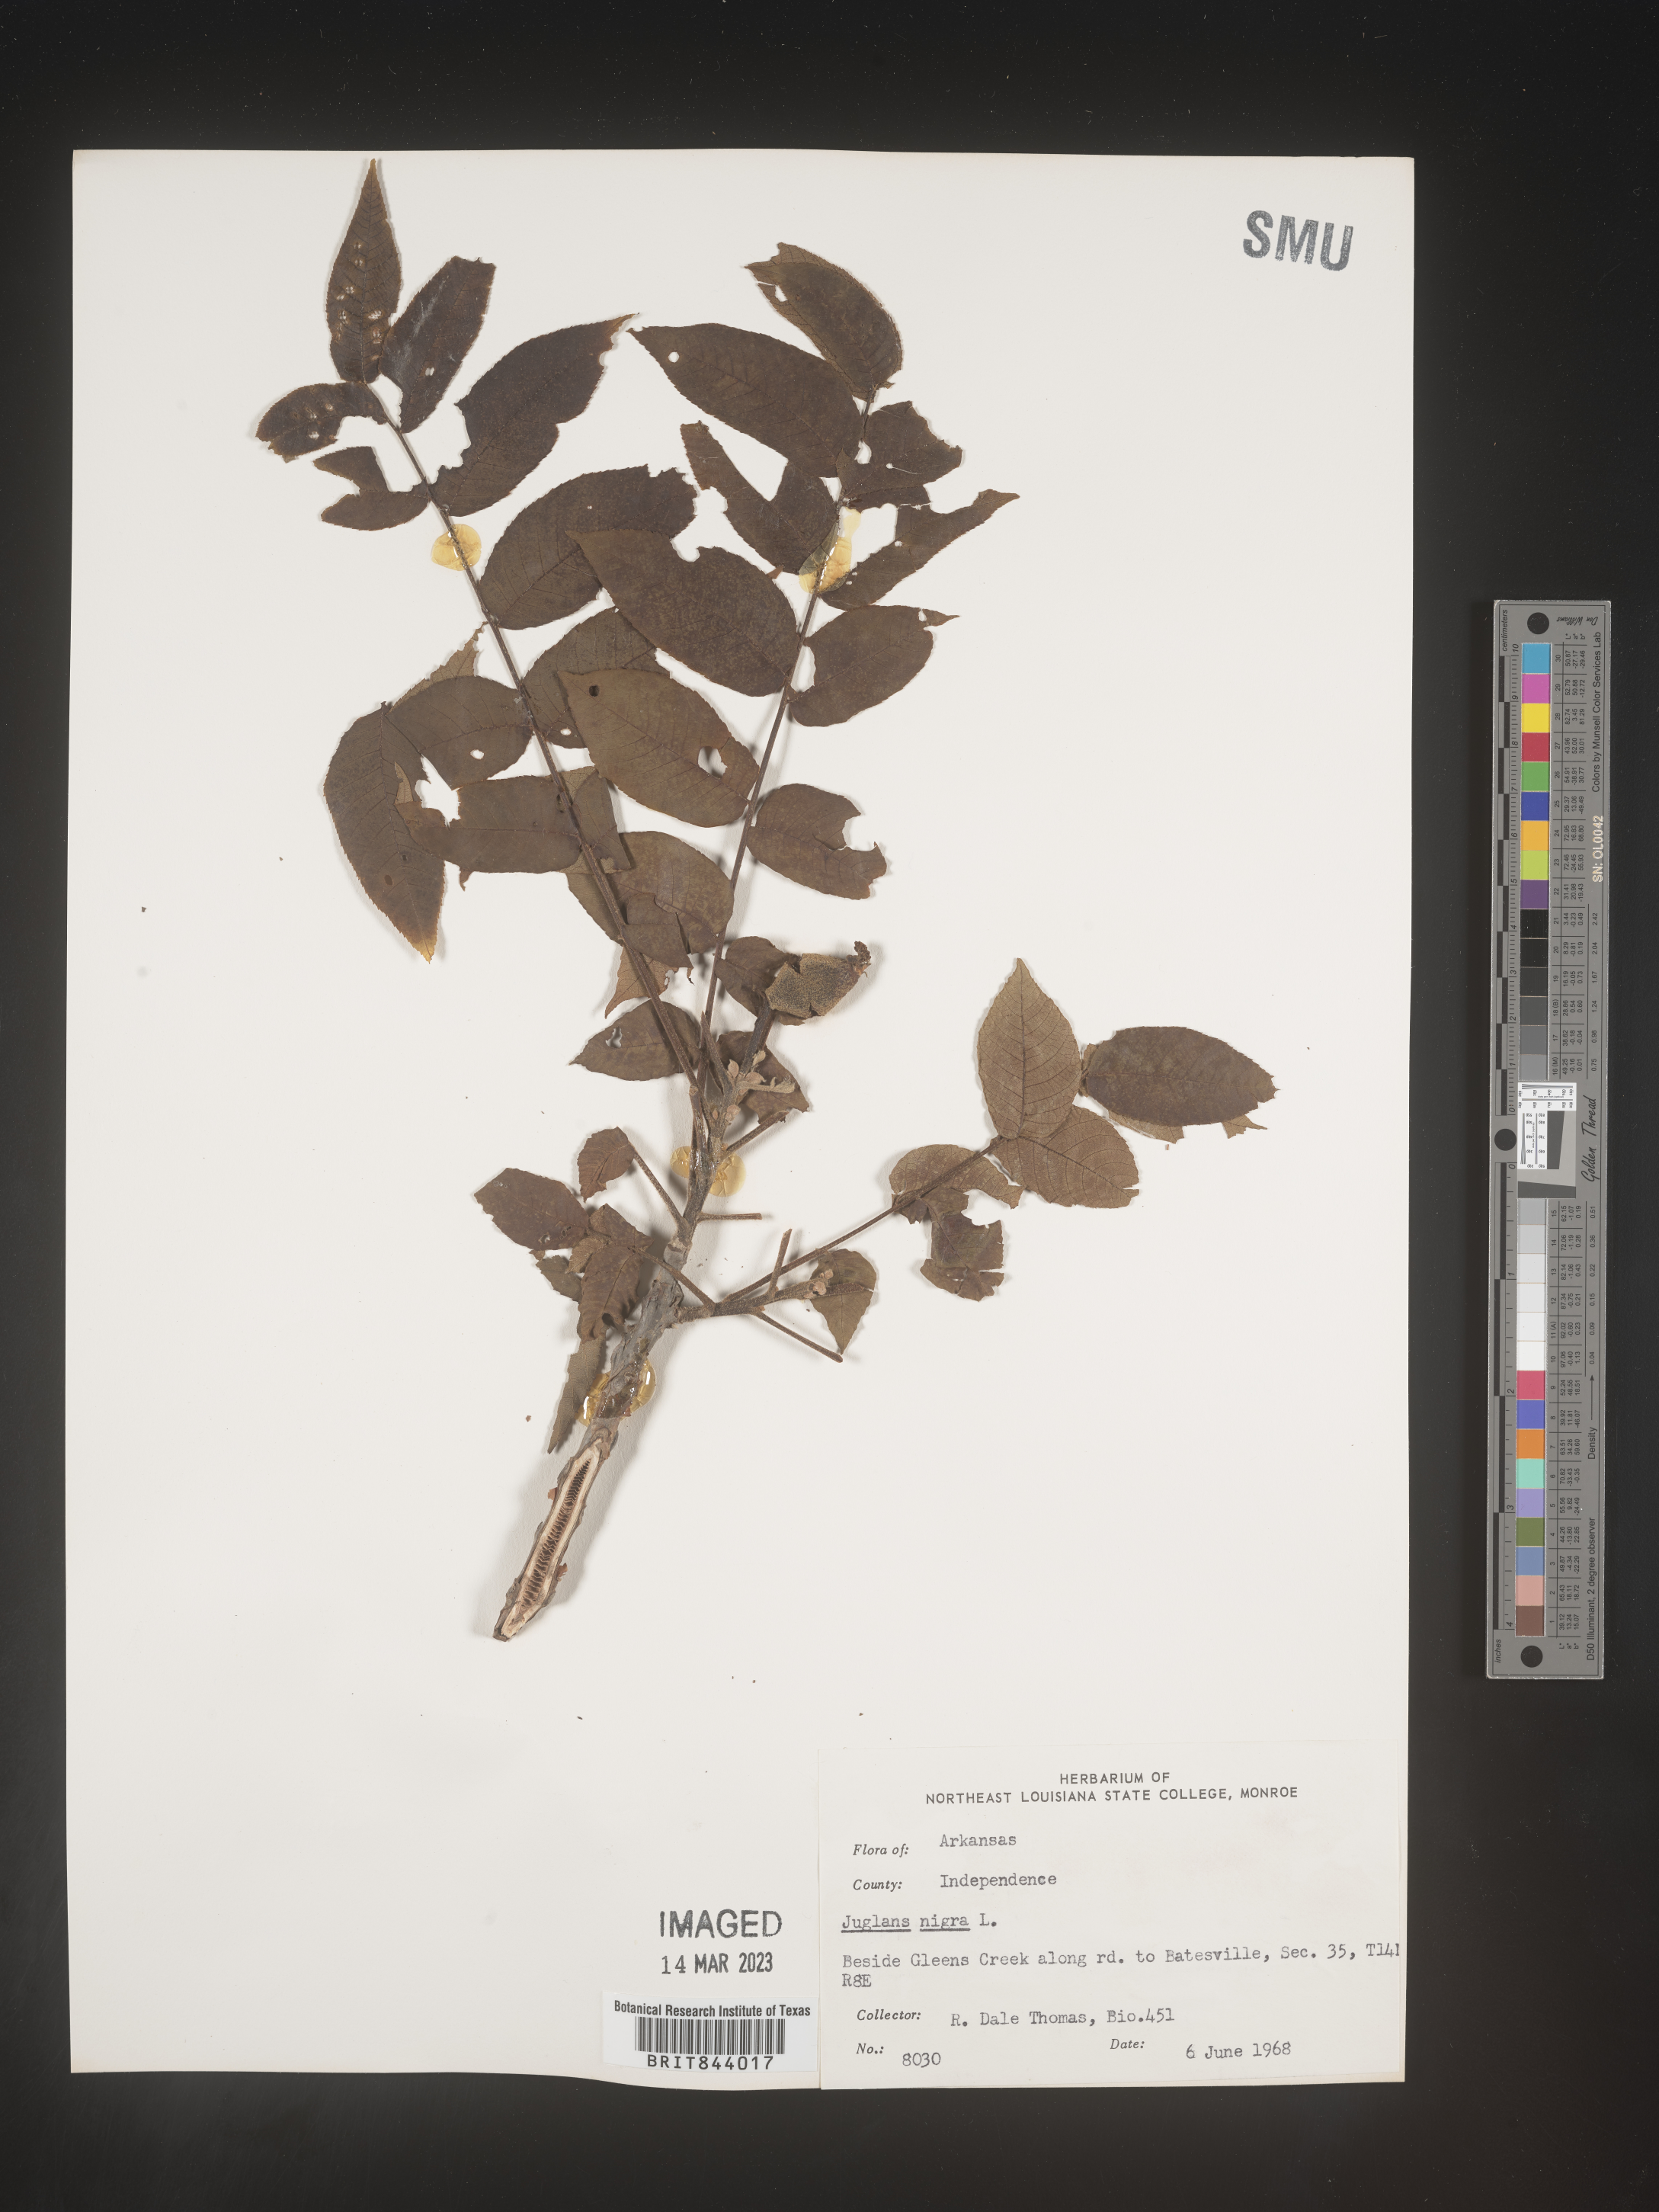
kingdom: Plantae
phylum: Tracheophyta
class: Magnoliopsida
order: Fagales
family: Juglandaceae
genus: Juglans
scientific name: Juglans nigra
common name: Black walnut
